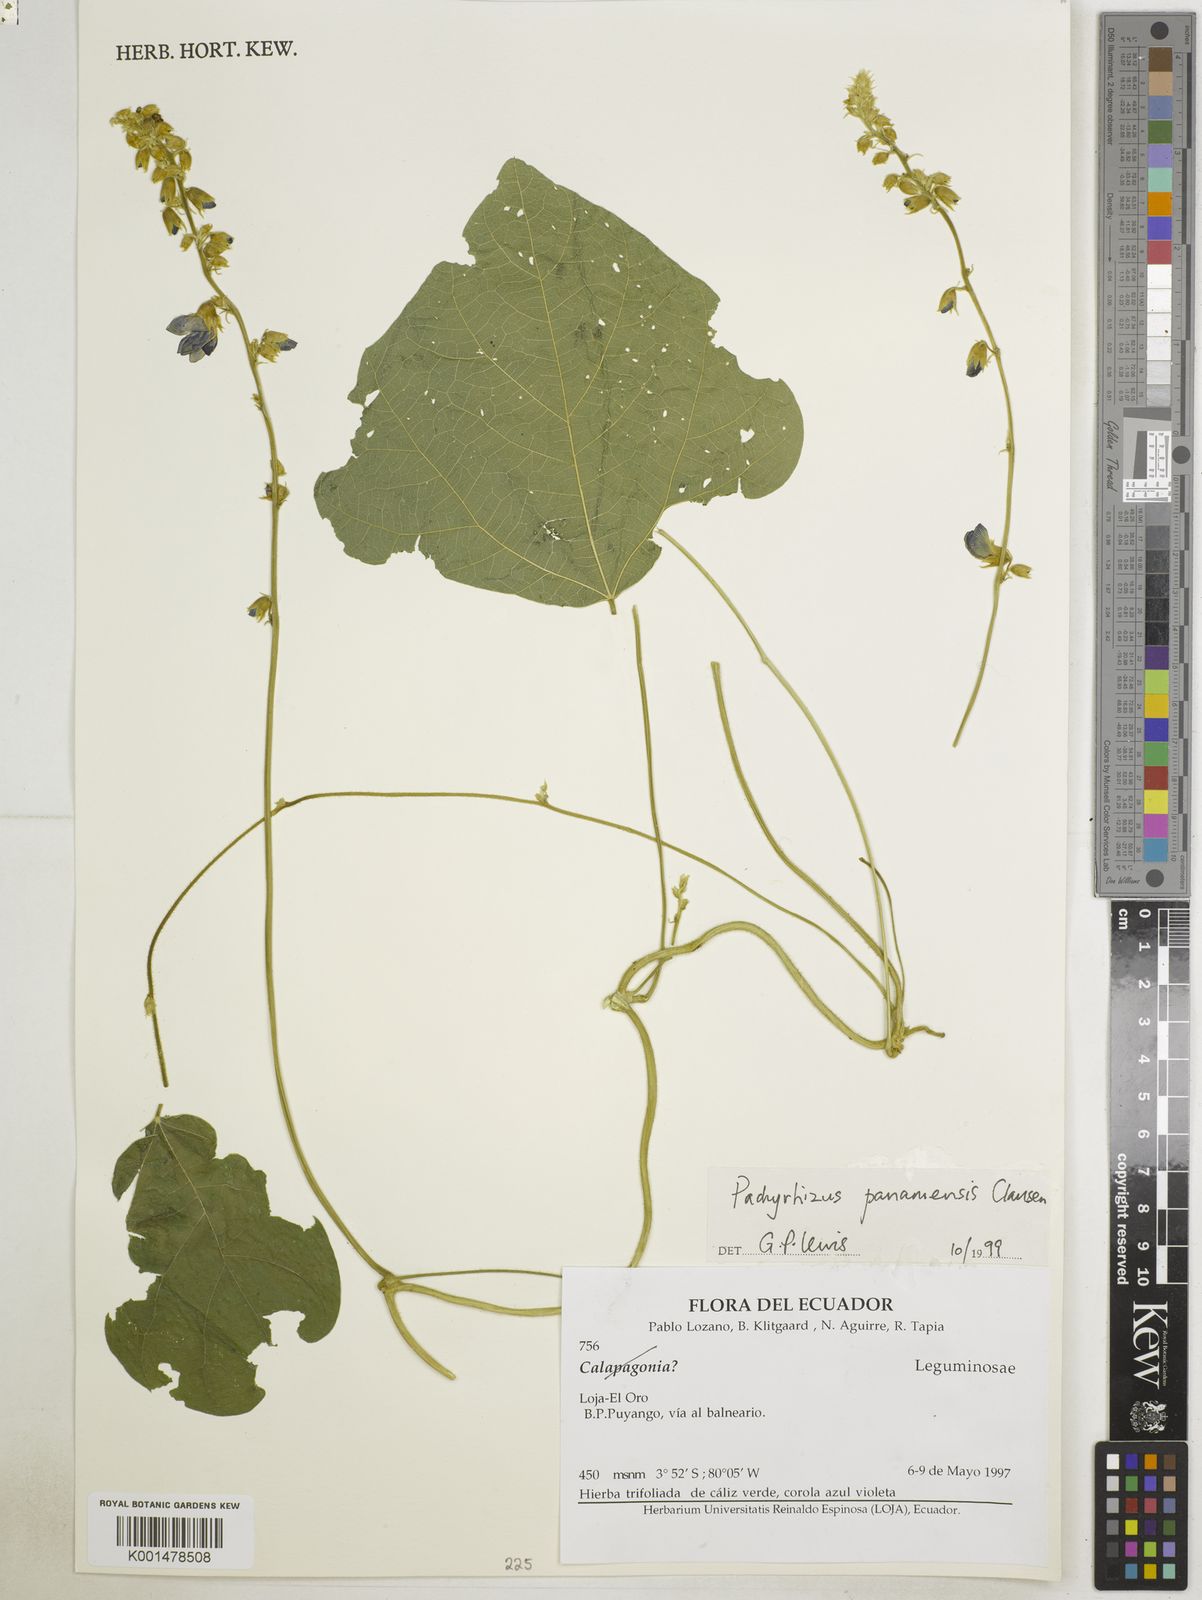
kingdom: Plantae
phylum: Tracheophyta
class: Magnoliopsida
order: Fabales
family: Fabaceae
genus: Pachyrhizus
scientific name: Pachyrhizus panamensis
